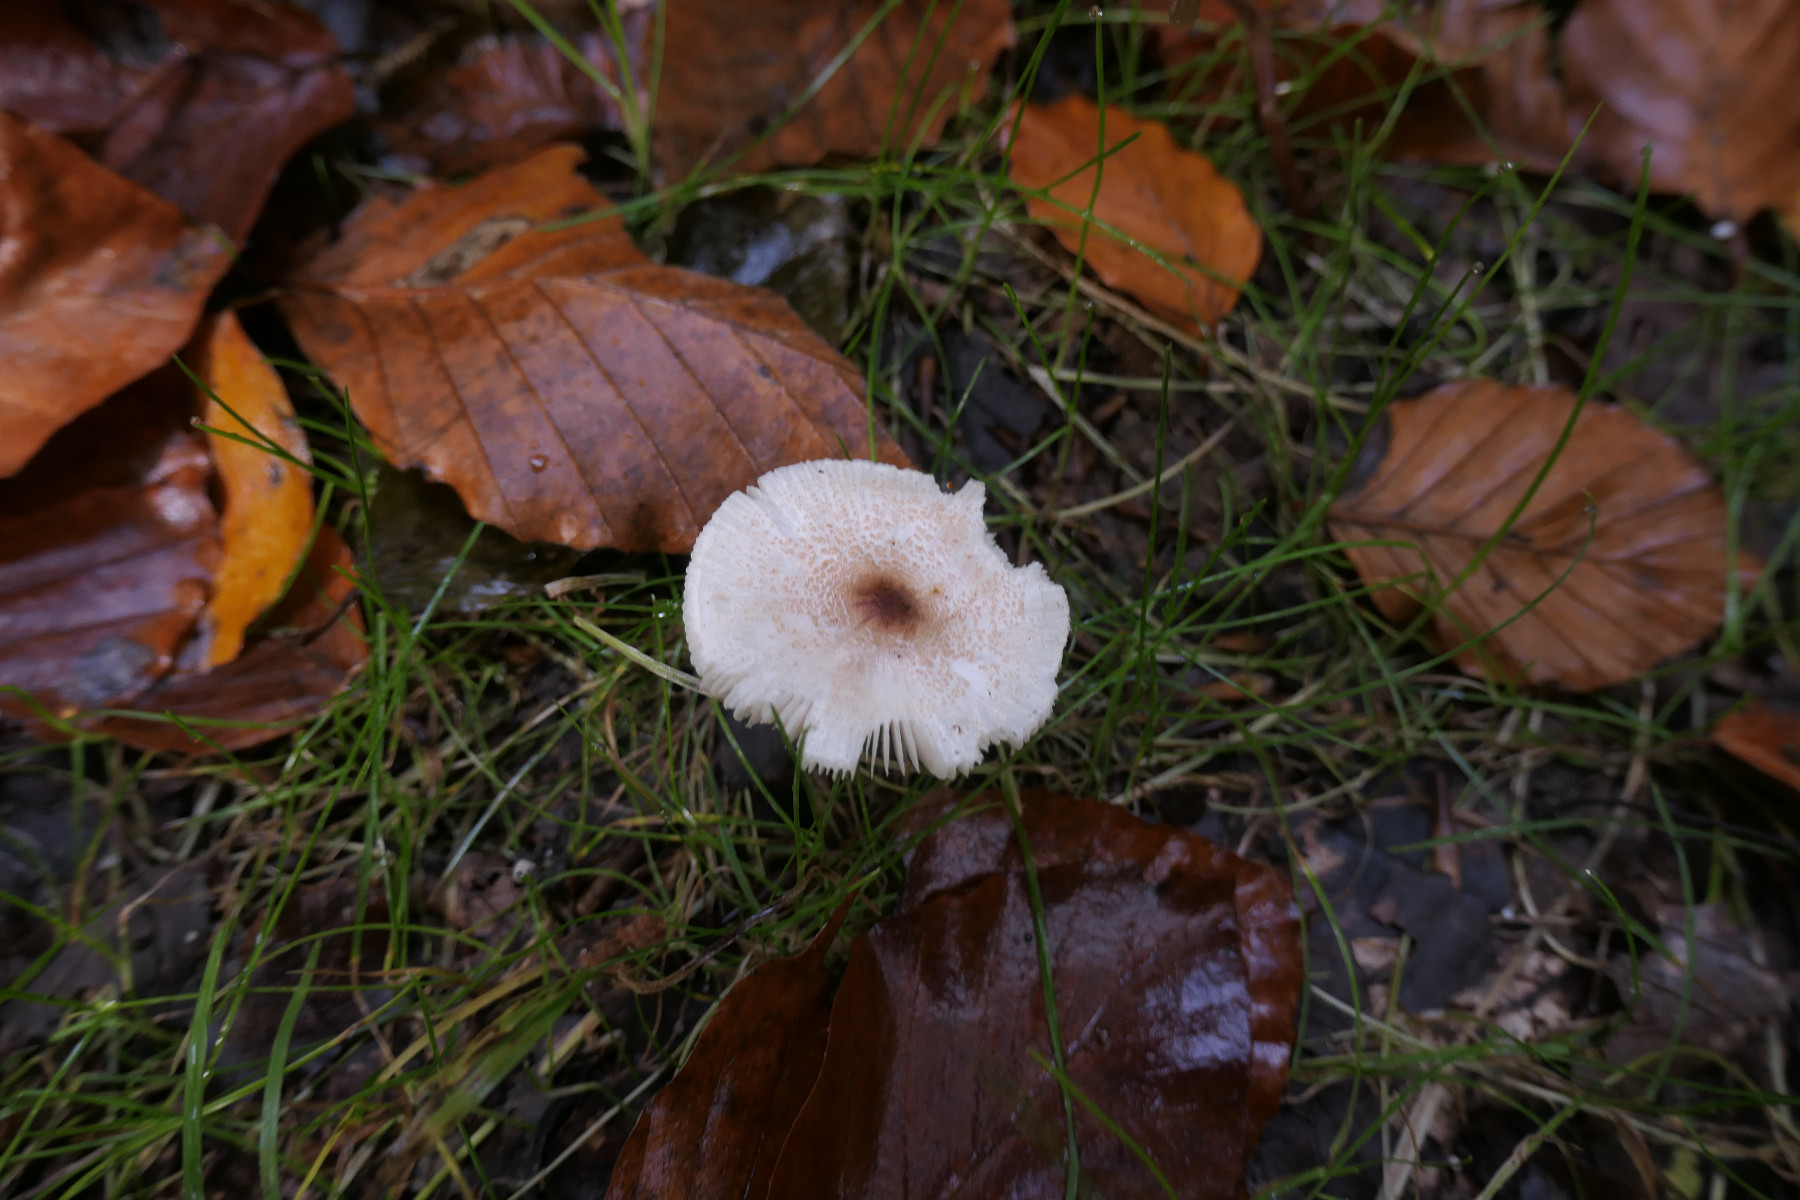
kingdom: Fungi
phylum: Basidiomycota
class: Agaricomycetes
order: Agaricales
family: Agaricaceae
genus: Lepiota
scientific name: Lepiota cristata
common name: stinkende parasolhat
